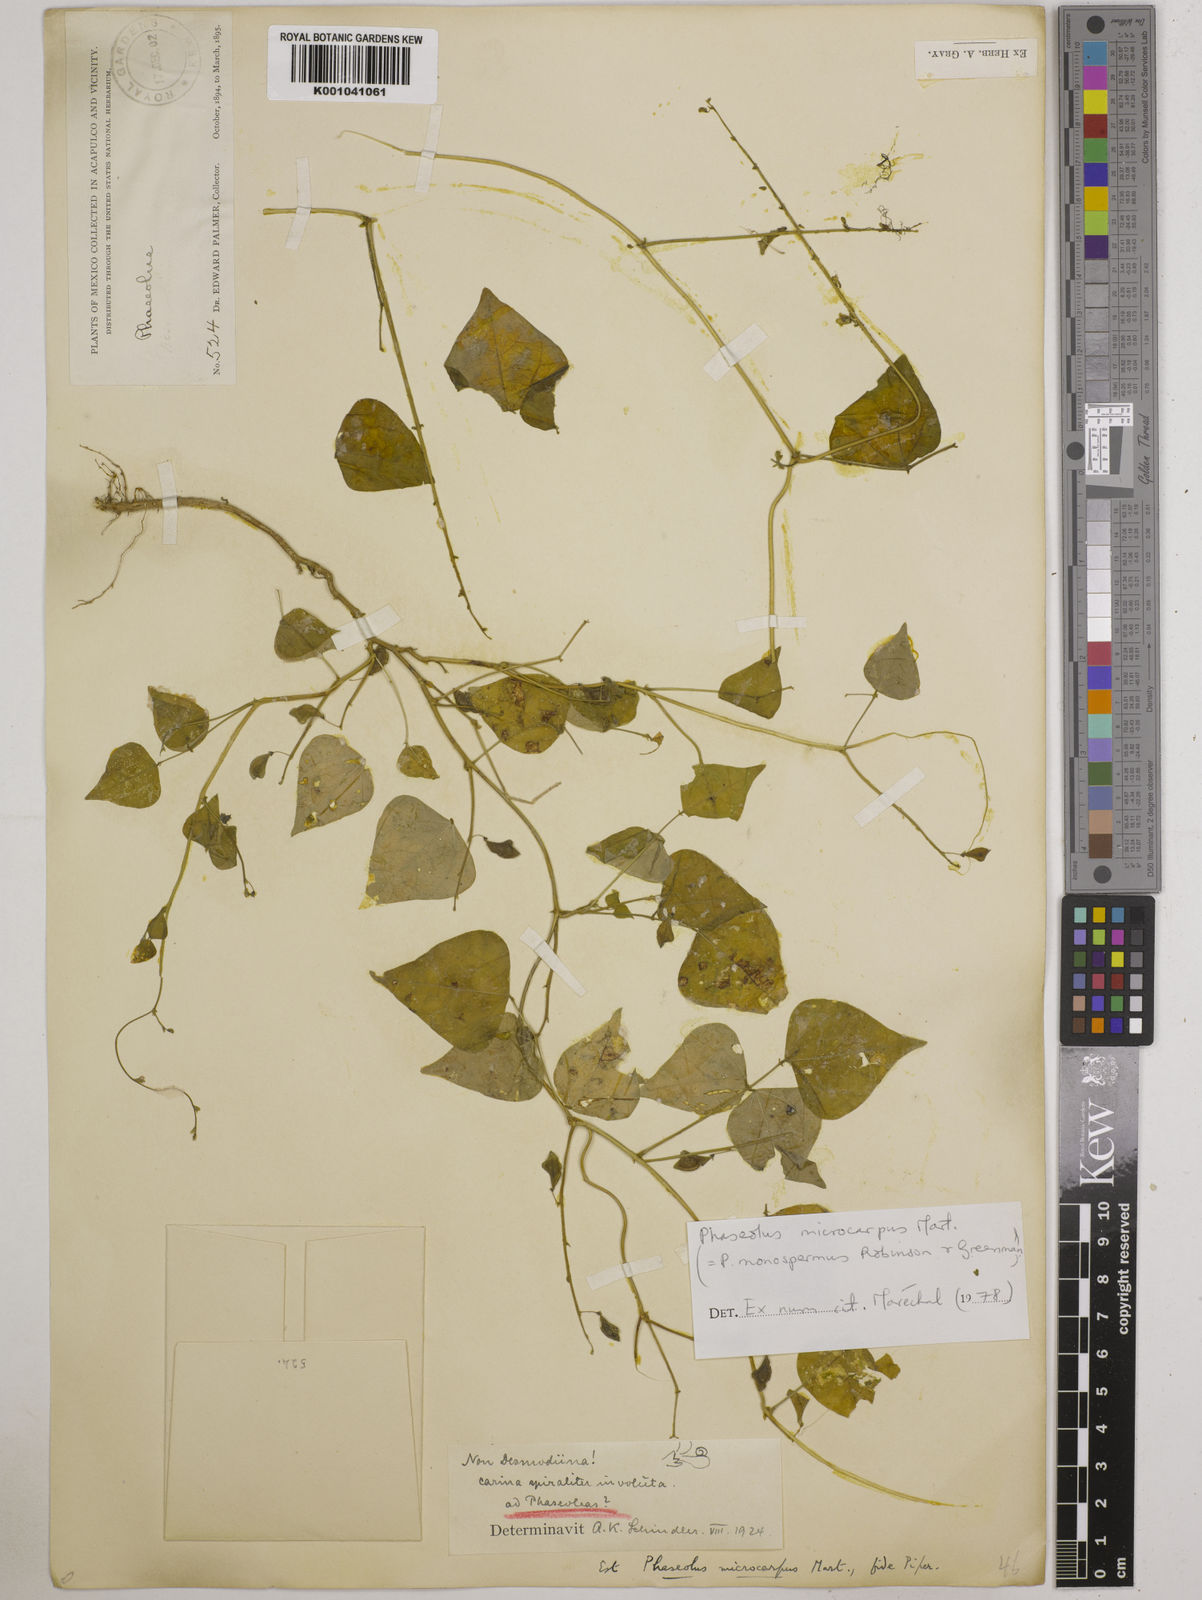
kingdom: Plantae
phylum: Tracheophyta
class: Magnoliopsida
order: Fabales
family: Fabaceae
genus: Phaseolus
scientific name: Phaseolus microcarpus
